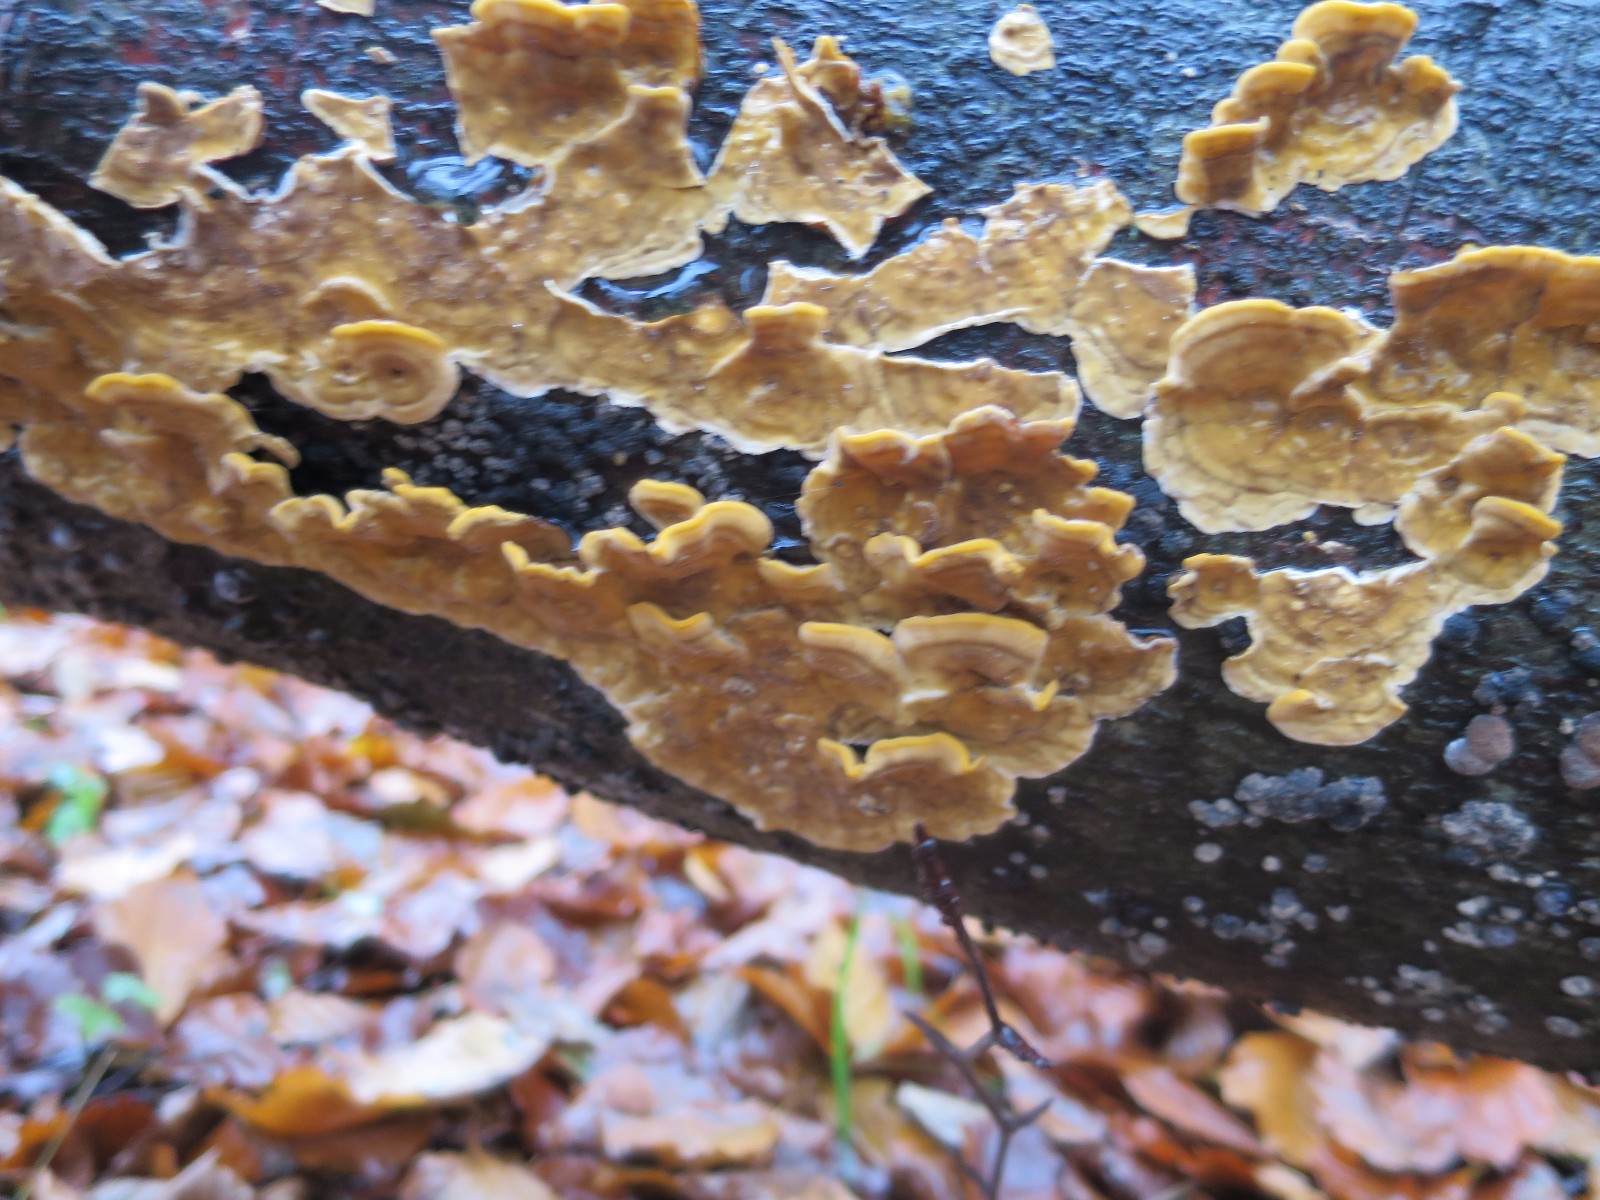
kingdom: Fungi
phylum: Basidiomycota
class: Agaricomycetes
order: Russulales
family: Stereaceae
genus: Stereum
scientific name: Stereum hirsutum
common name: håret lædersvamp
